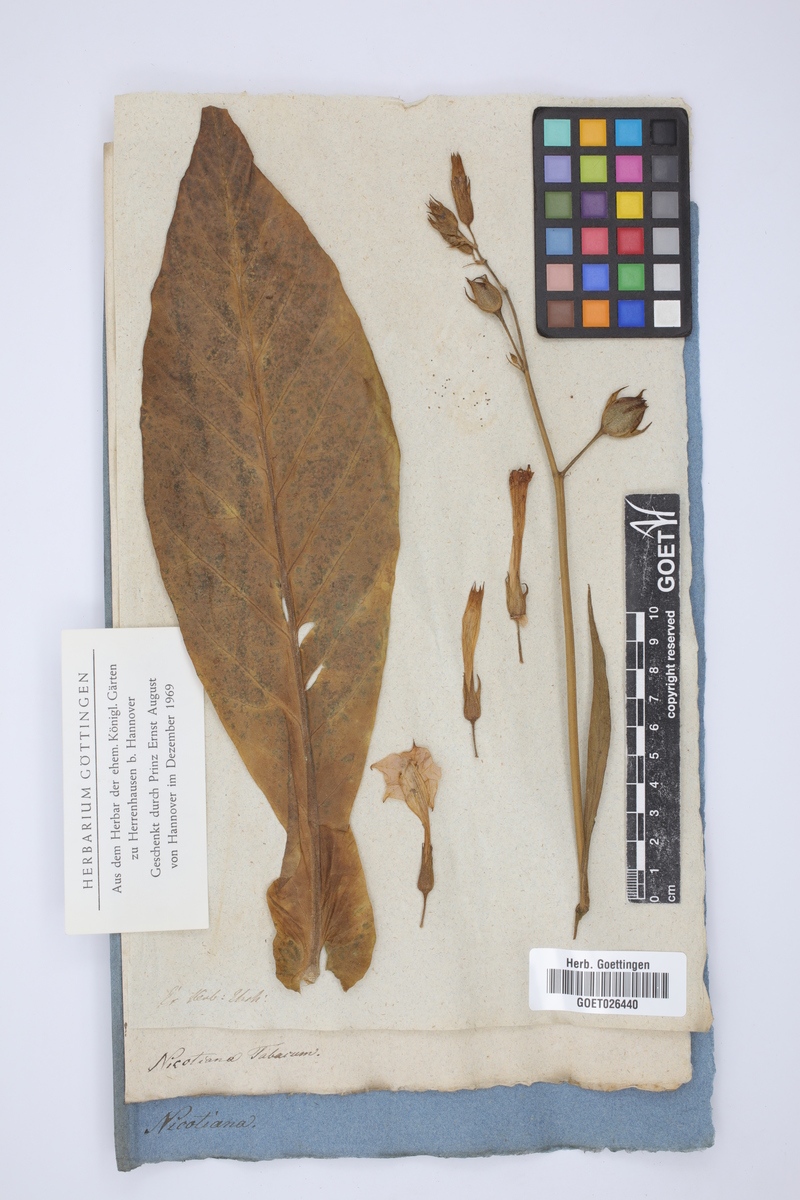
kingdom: Plantae
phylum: Tracheophyta
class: Magnoliopsida
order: Solanales
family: Solanaceae
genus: Nicotiana
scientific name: Nicotiana tabacum
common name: Tobacco
